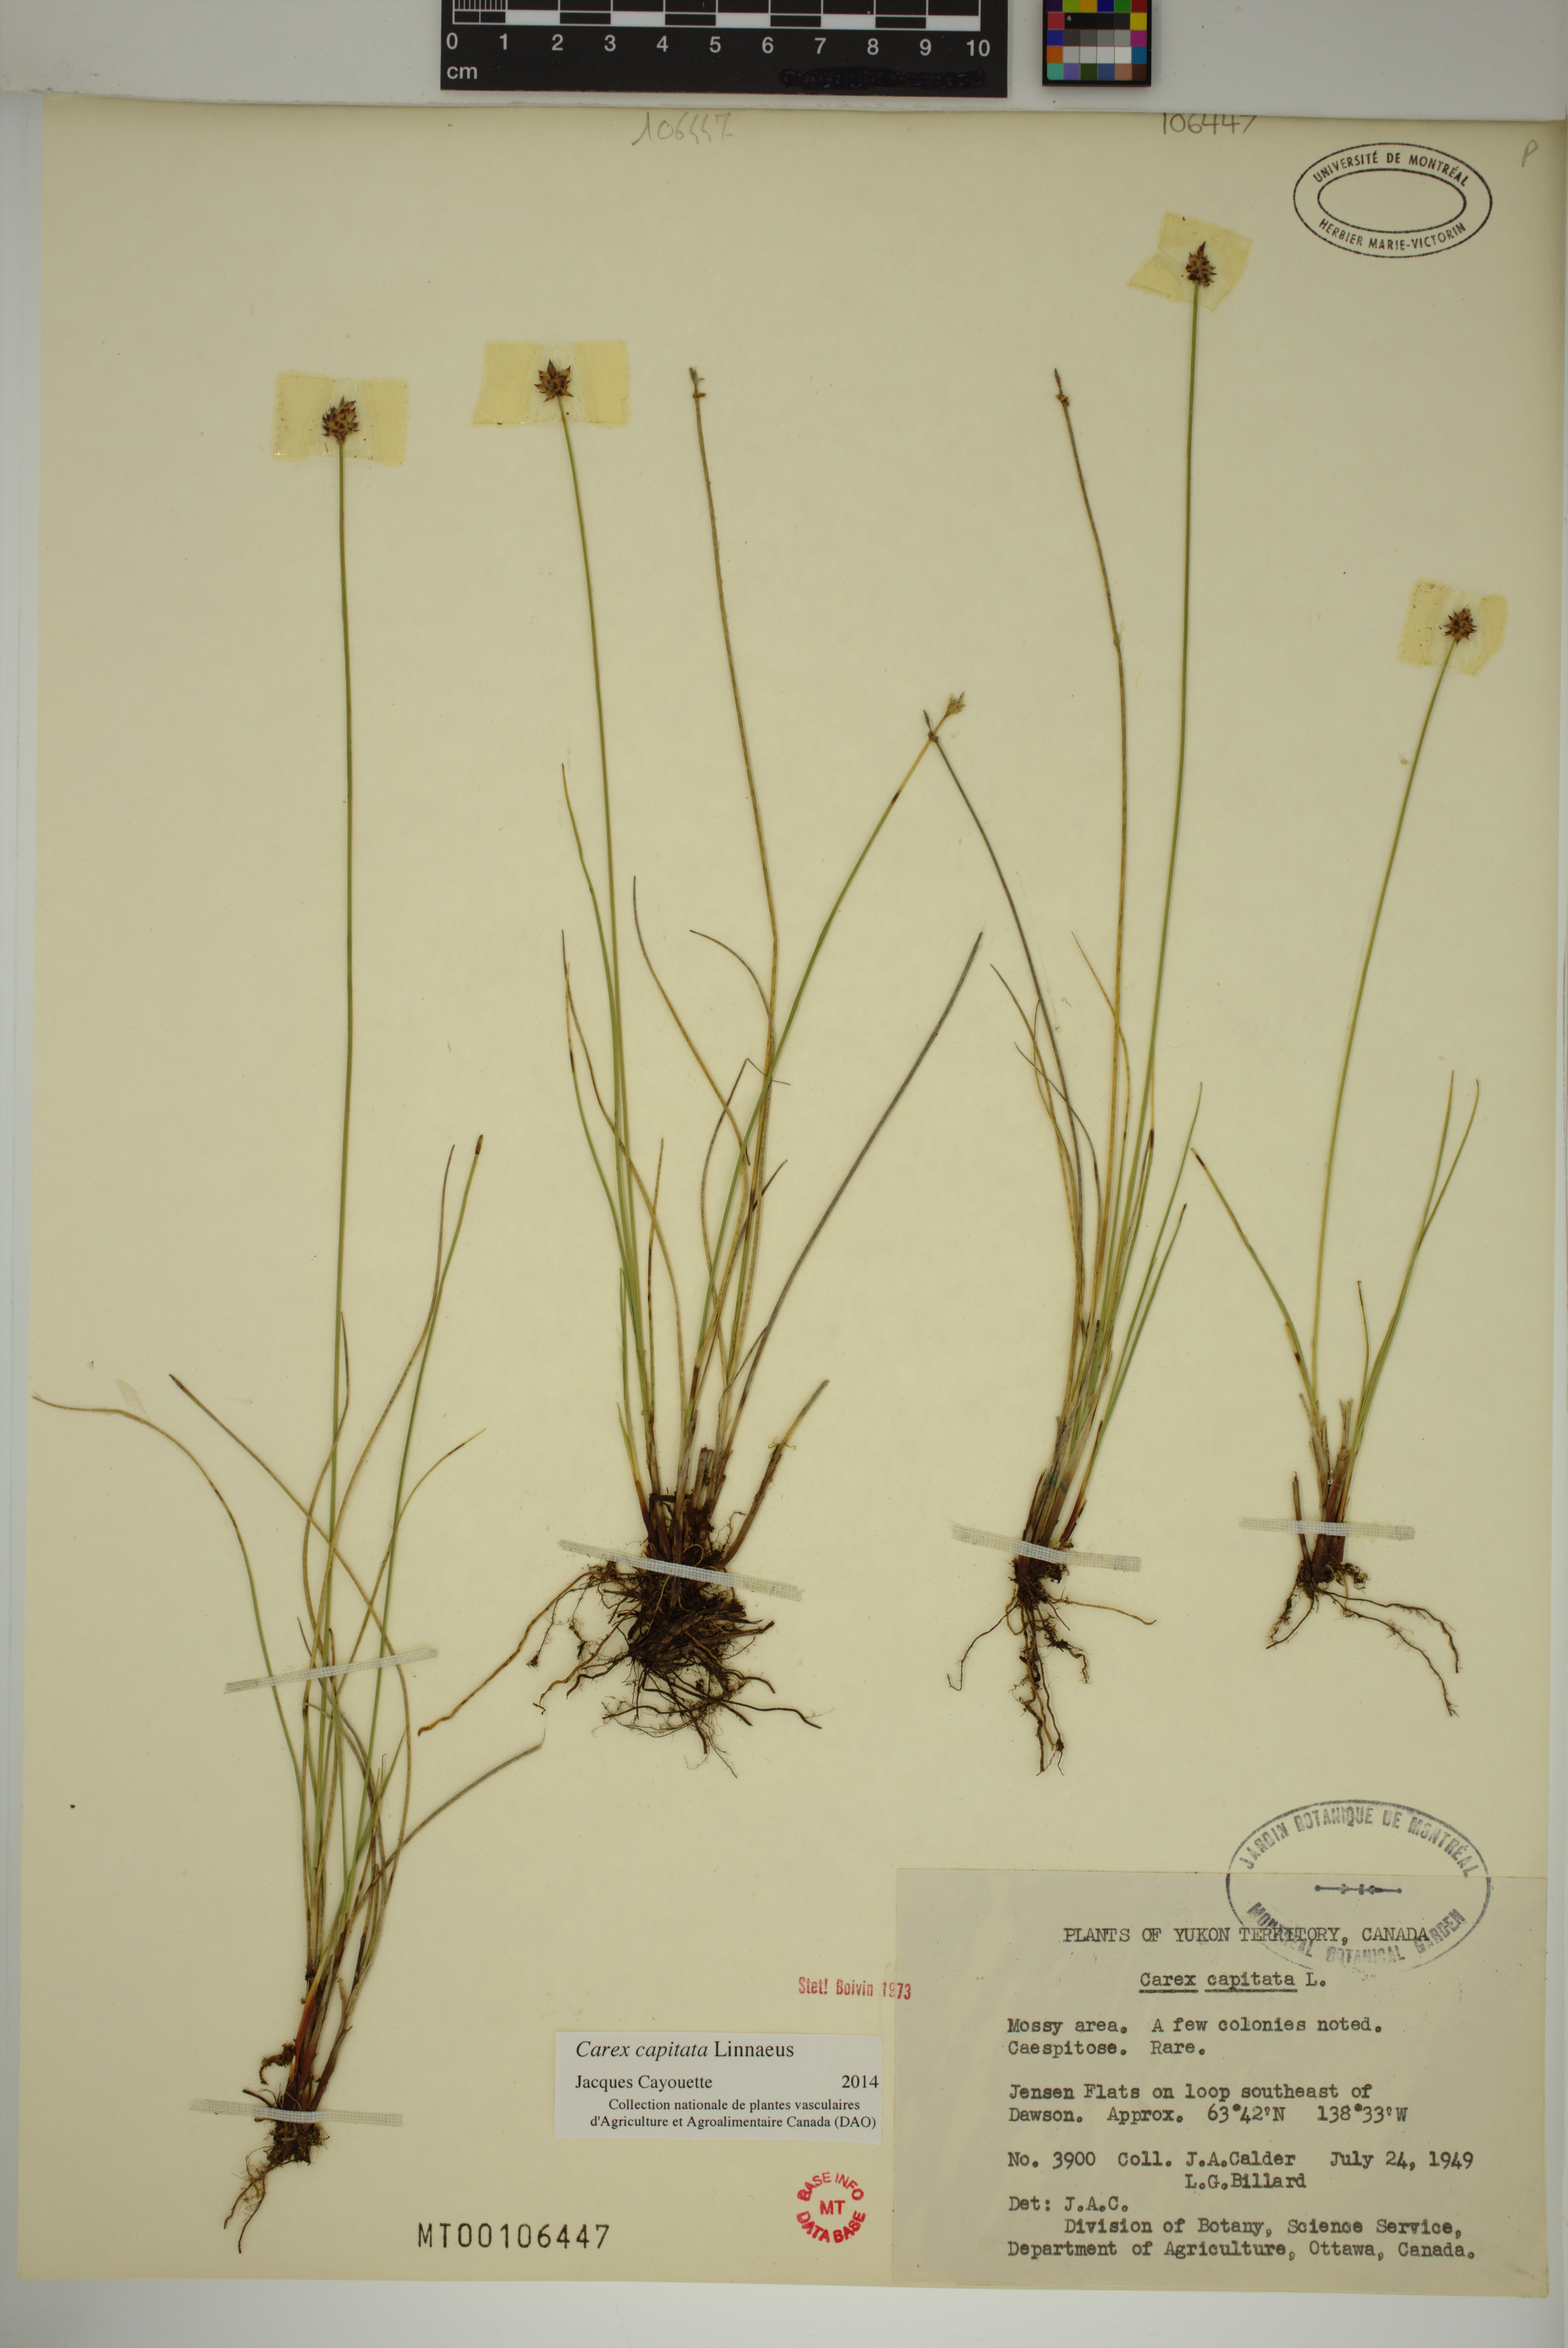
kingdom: Plantae
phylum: Tracheophyta
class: Liliopsida
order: Poales
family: Cyperaceae
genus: Carex
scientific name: Carex capitata
